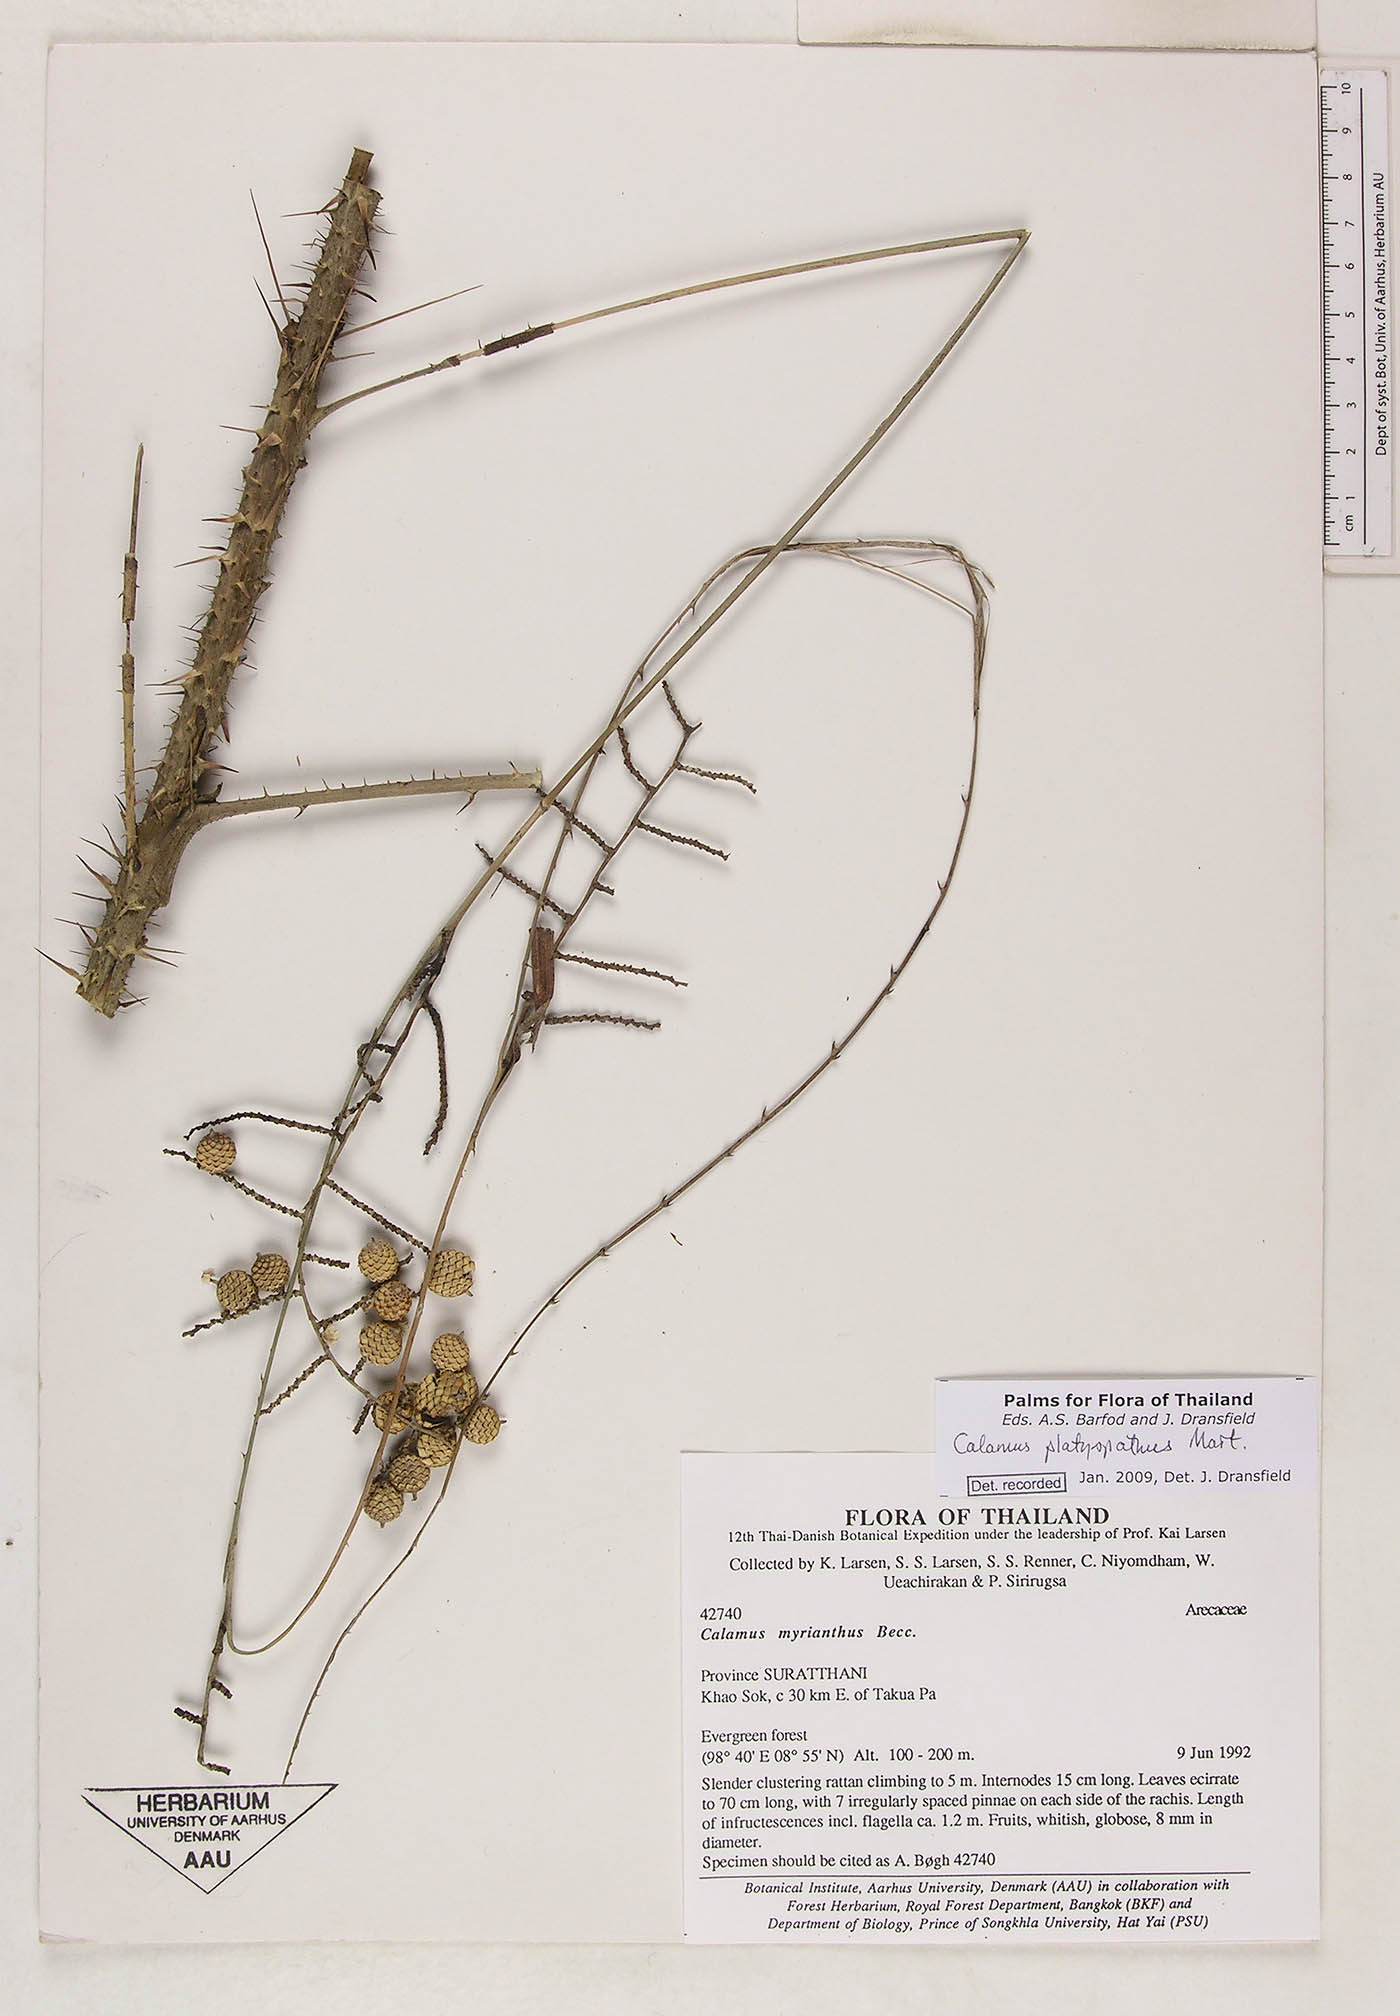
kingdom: Plantae
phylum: Tracheophyta
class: Liliopsida
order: Arecales
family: Arecaceae
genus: Calamus
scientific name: Calamus inermis
